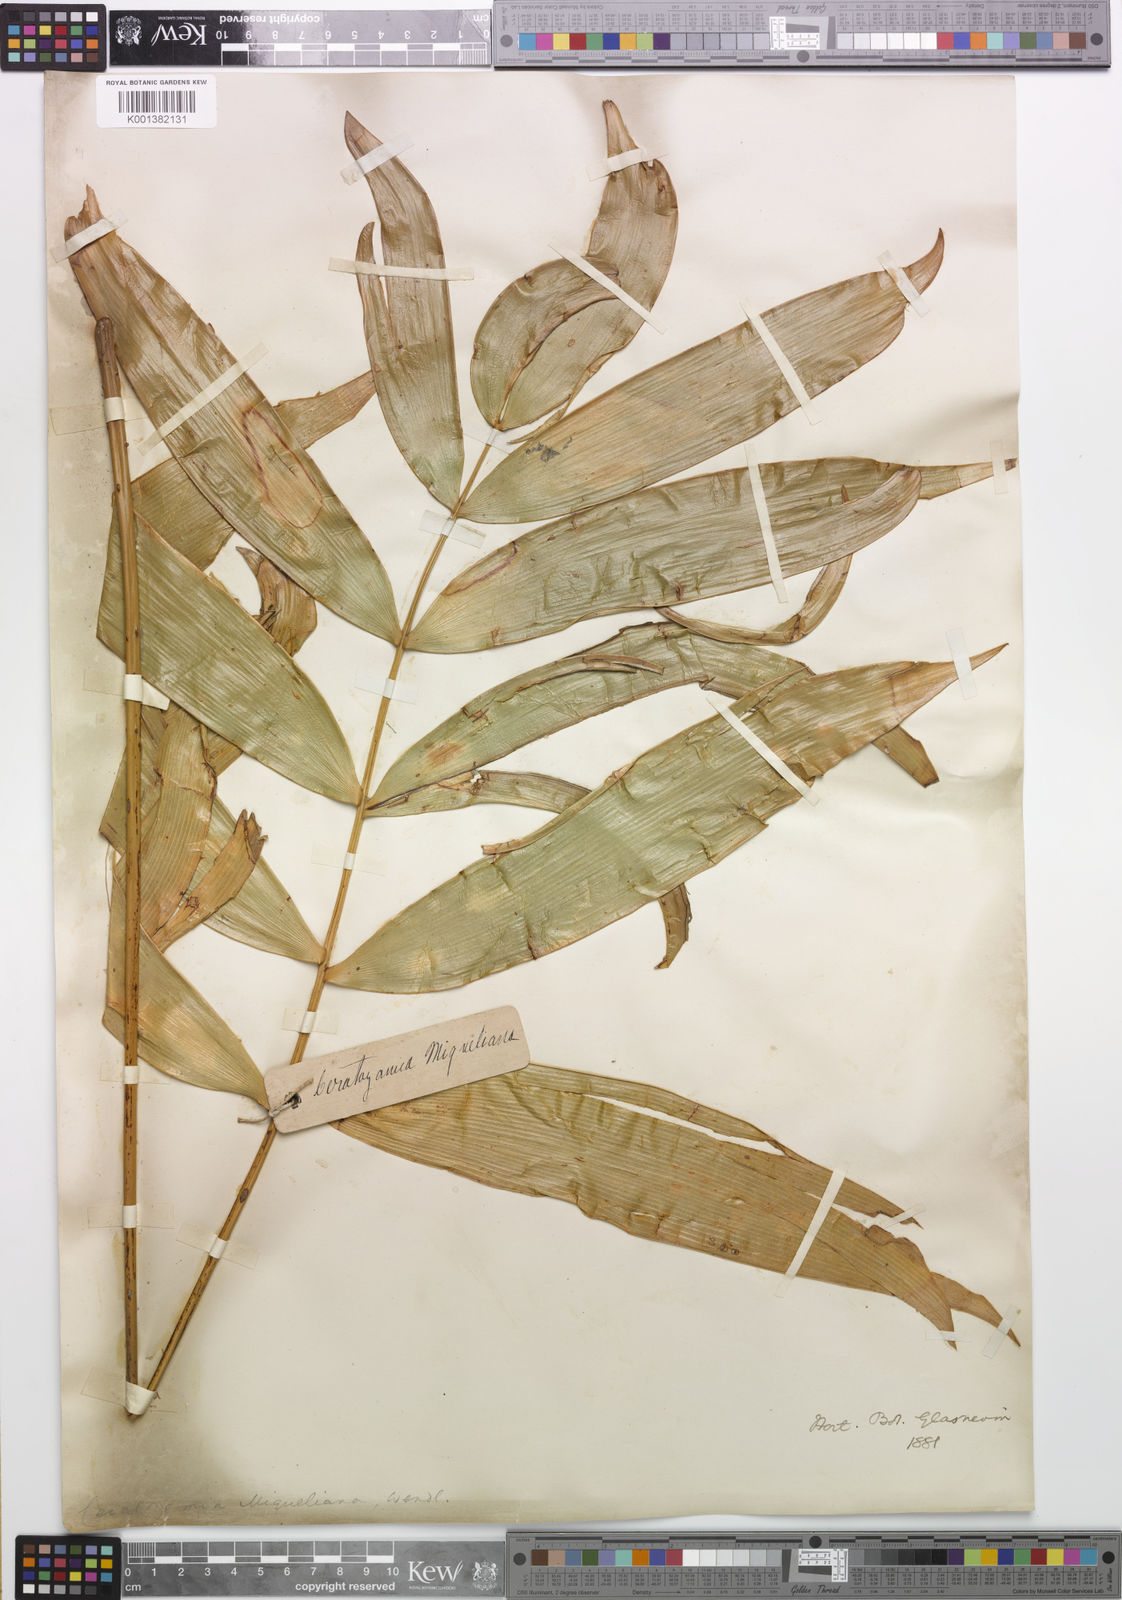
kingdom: Plantae
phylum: Tracheophyta
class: Cycadopsida
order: Cycadales
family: Zamiaceae
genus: Ceratozamia
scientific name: Ceratozamia miqueliana
